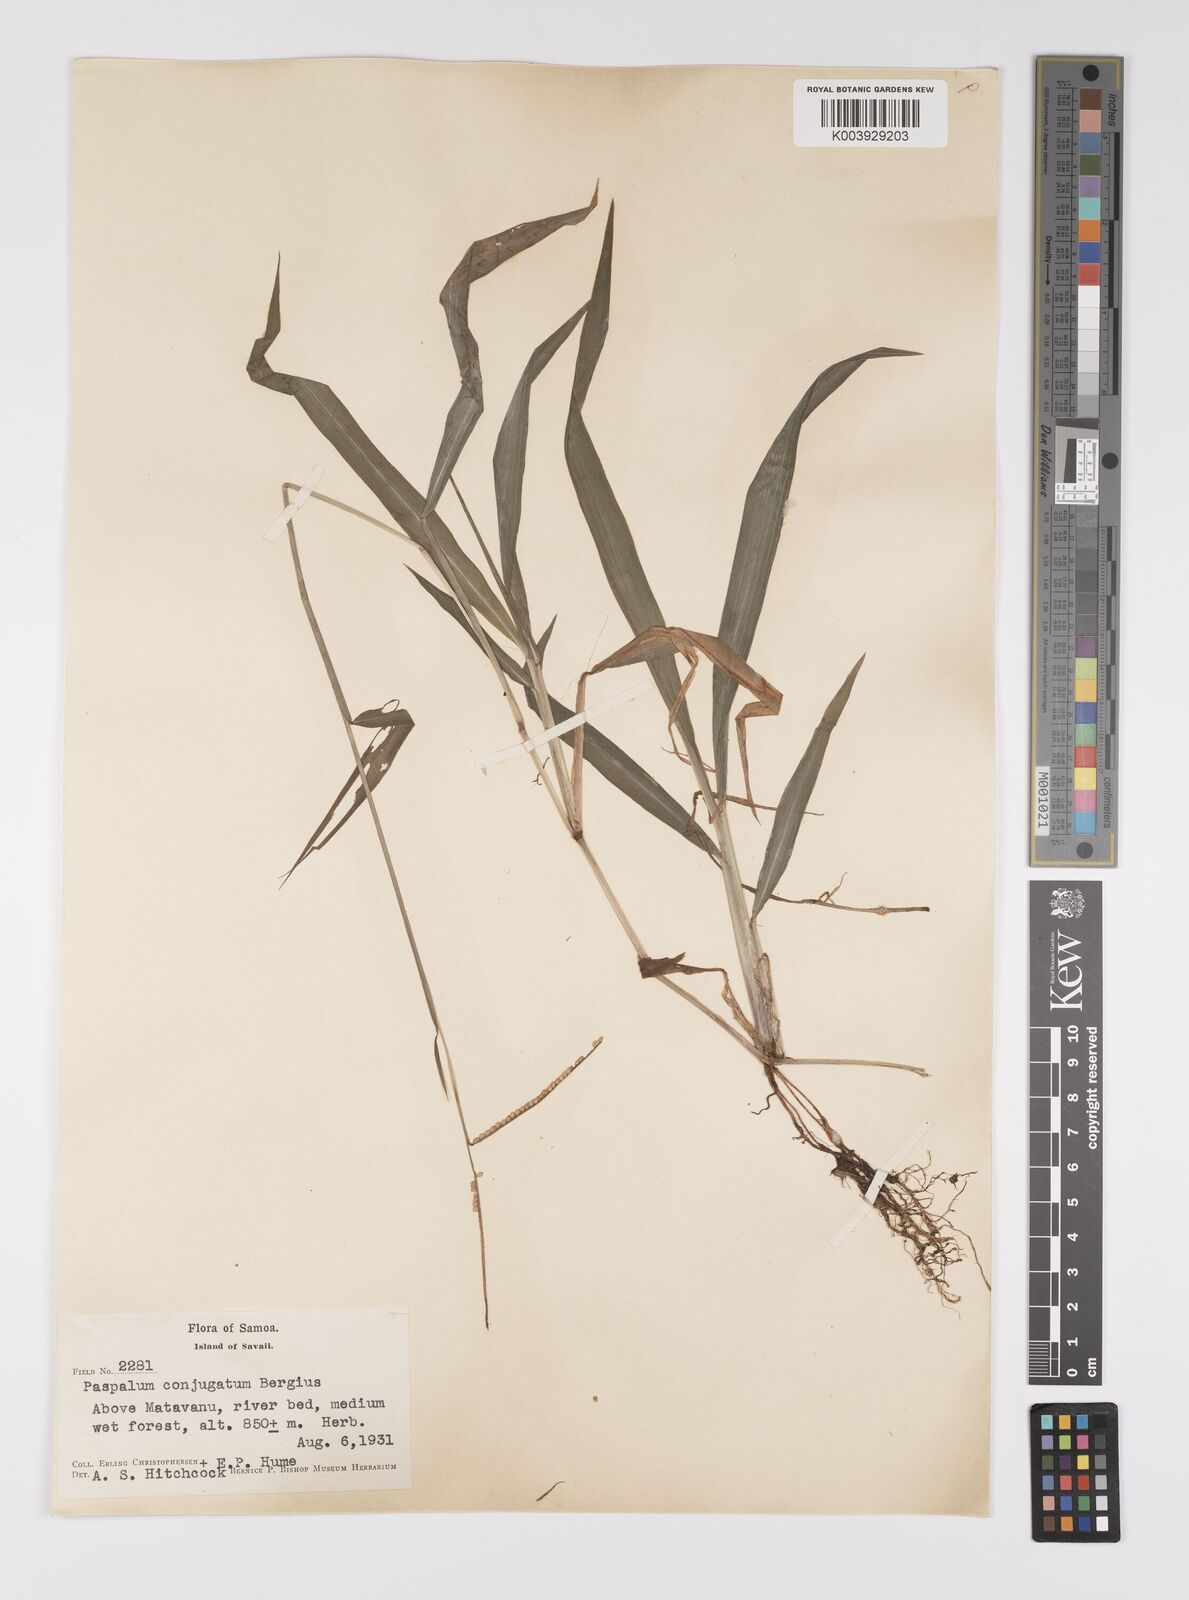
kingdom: Plantae
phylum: Tracheophyta
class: Liliopsida
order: Poales
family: Poaceae
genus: Paspalum
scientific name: Paspalum conjugatum
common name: Hilograss
